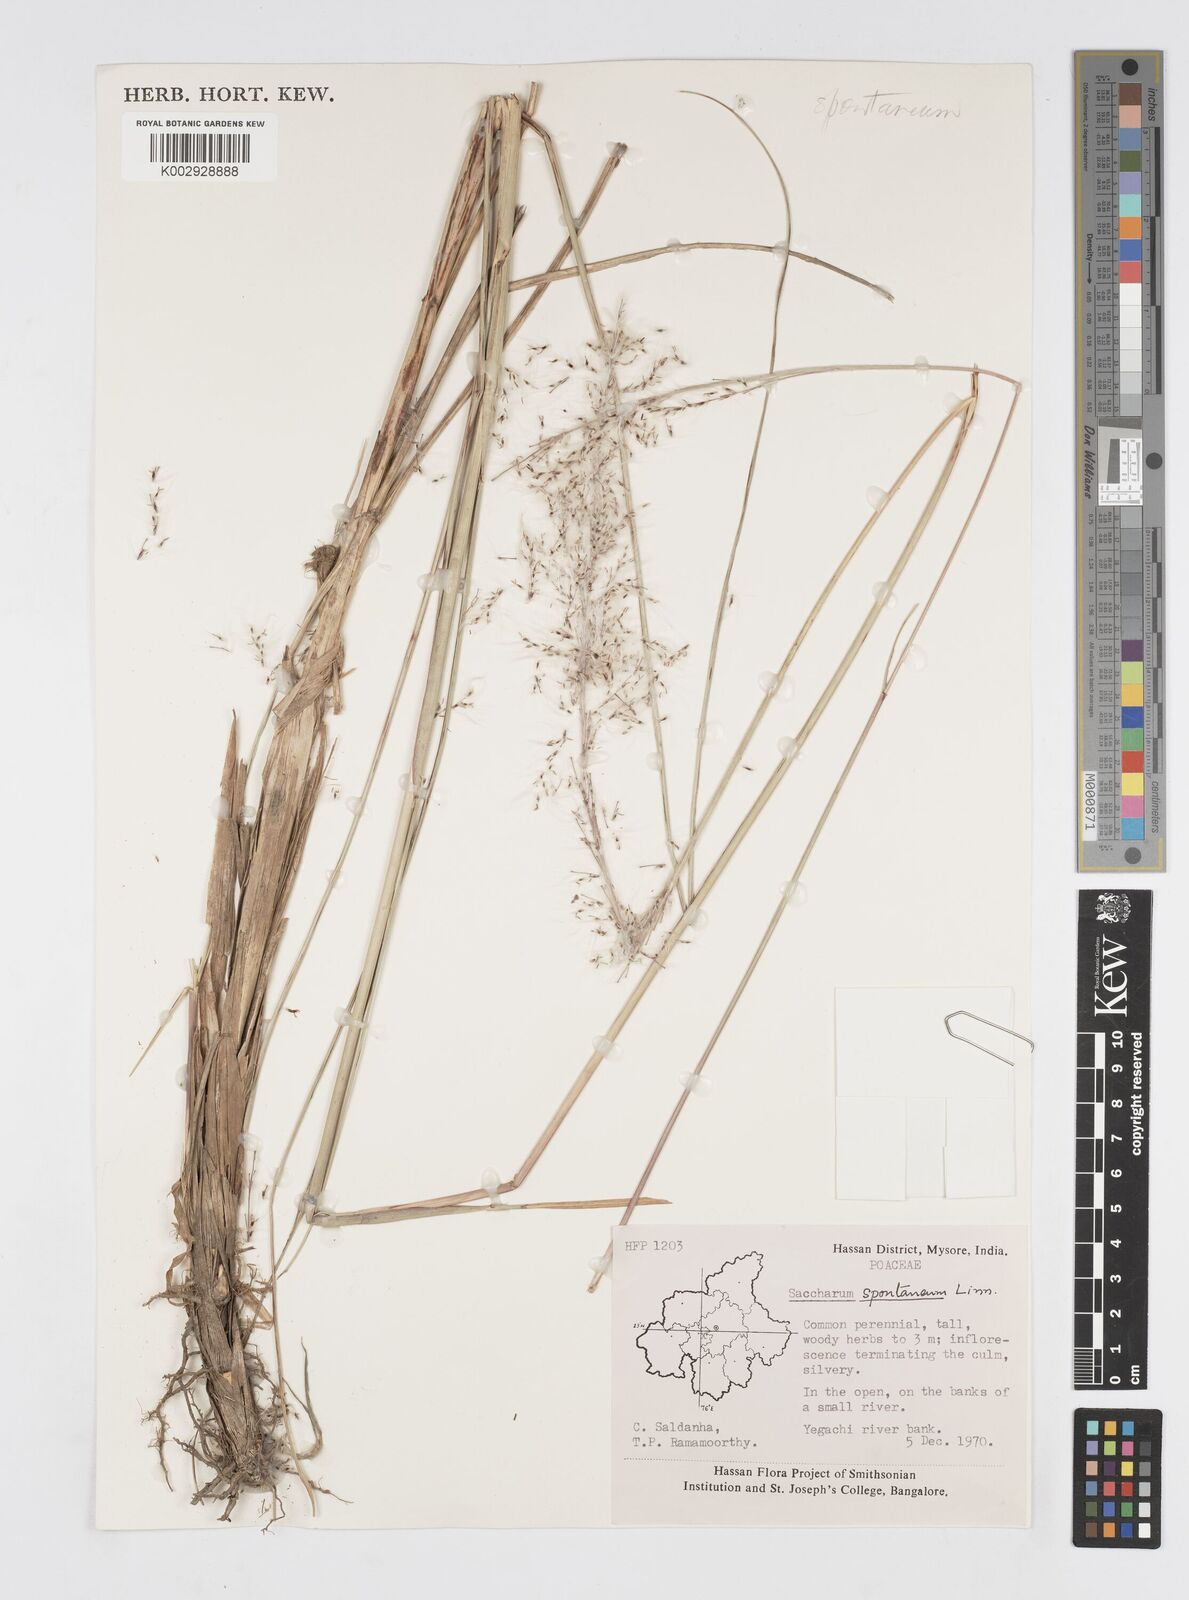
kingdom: Plantae
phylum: Tracheophyta
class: Liliopsida
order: Poales
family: Poaceae
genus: Saccharum
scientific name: Saccharum spontaneum
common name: Wild sugarcane
